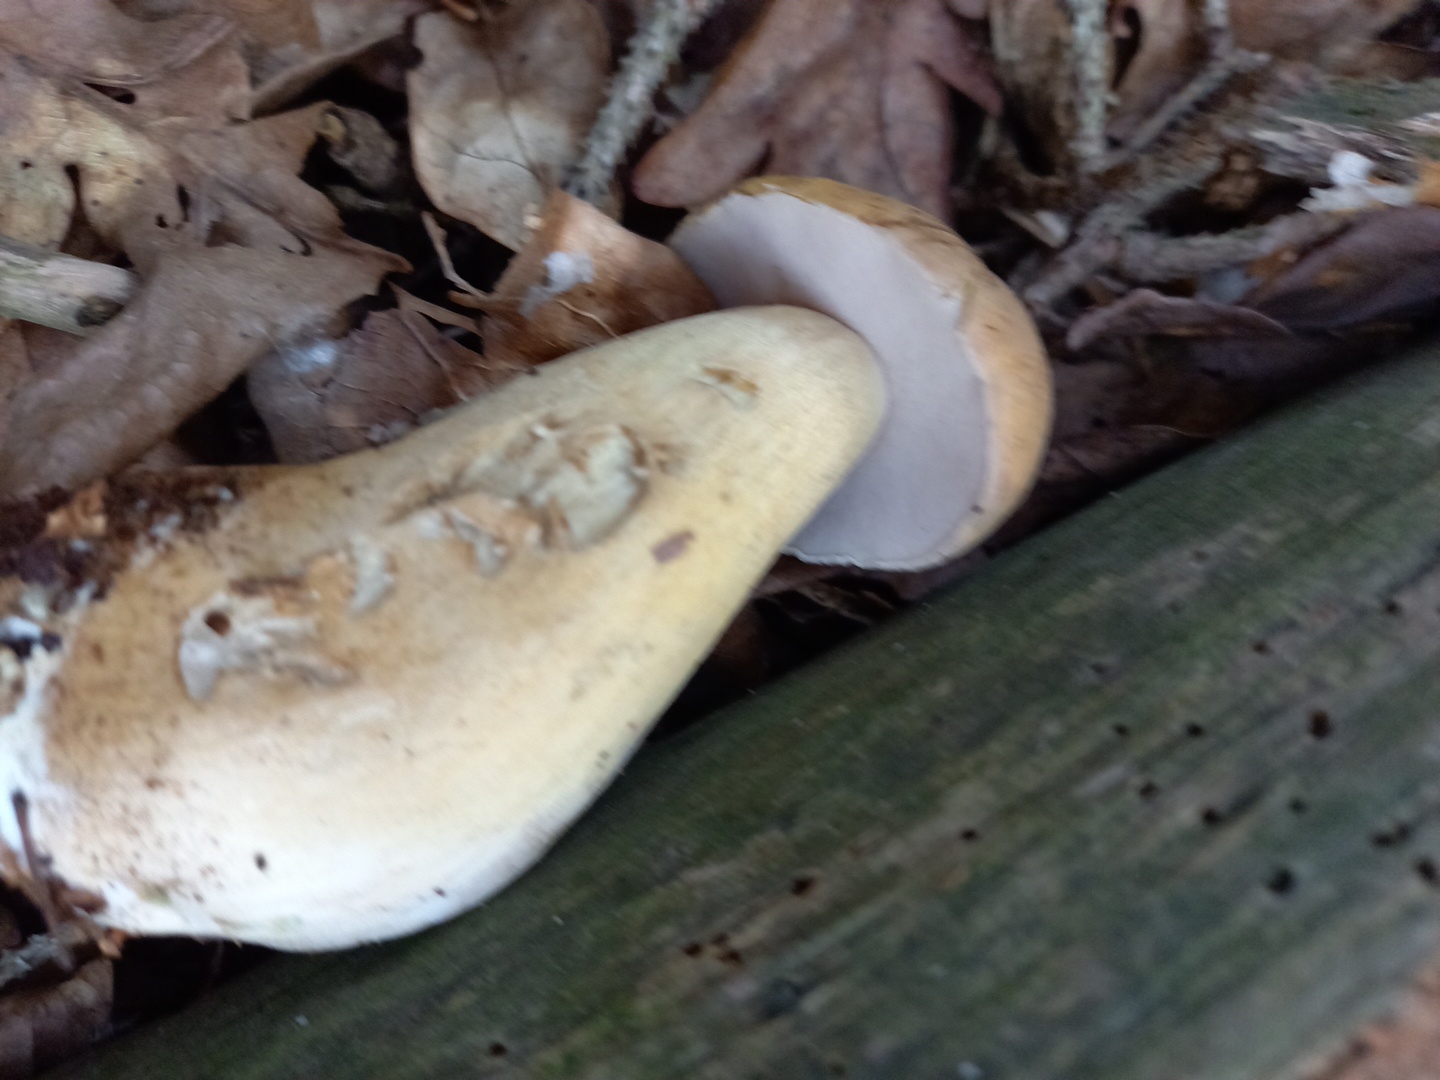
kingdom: Fungi
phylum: Basidiomycota
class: Agaricomycetes
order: Boletales
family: Boletaceae
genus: Tylopilus
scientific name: Tylopilus felleus
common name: galderørhat
